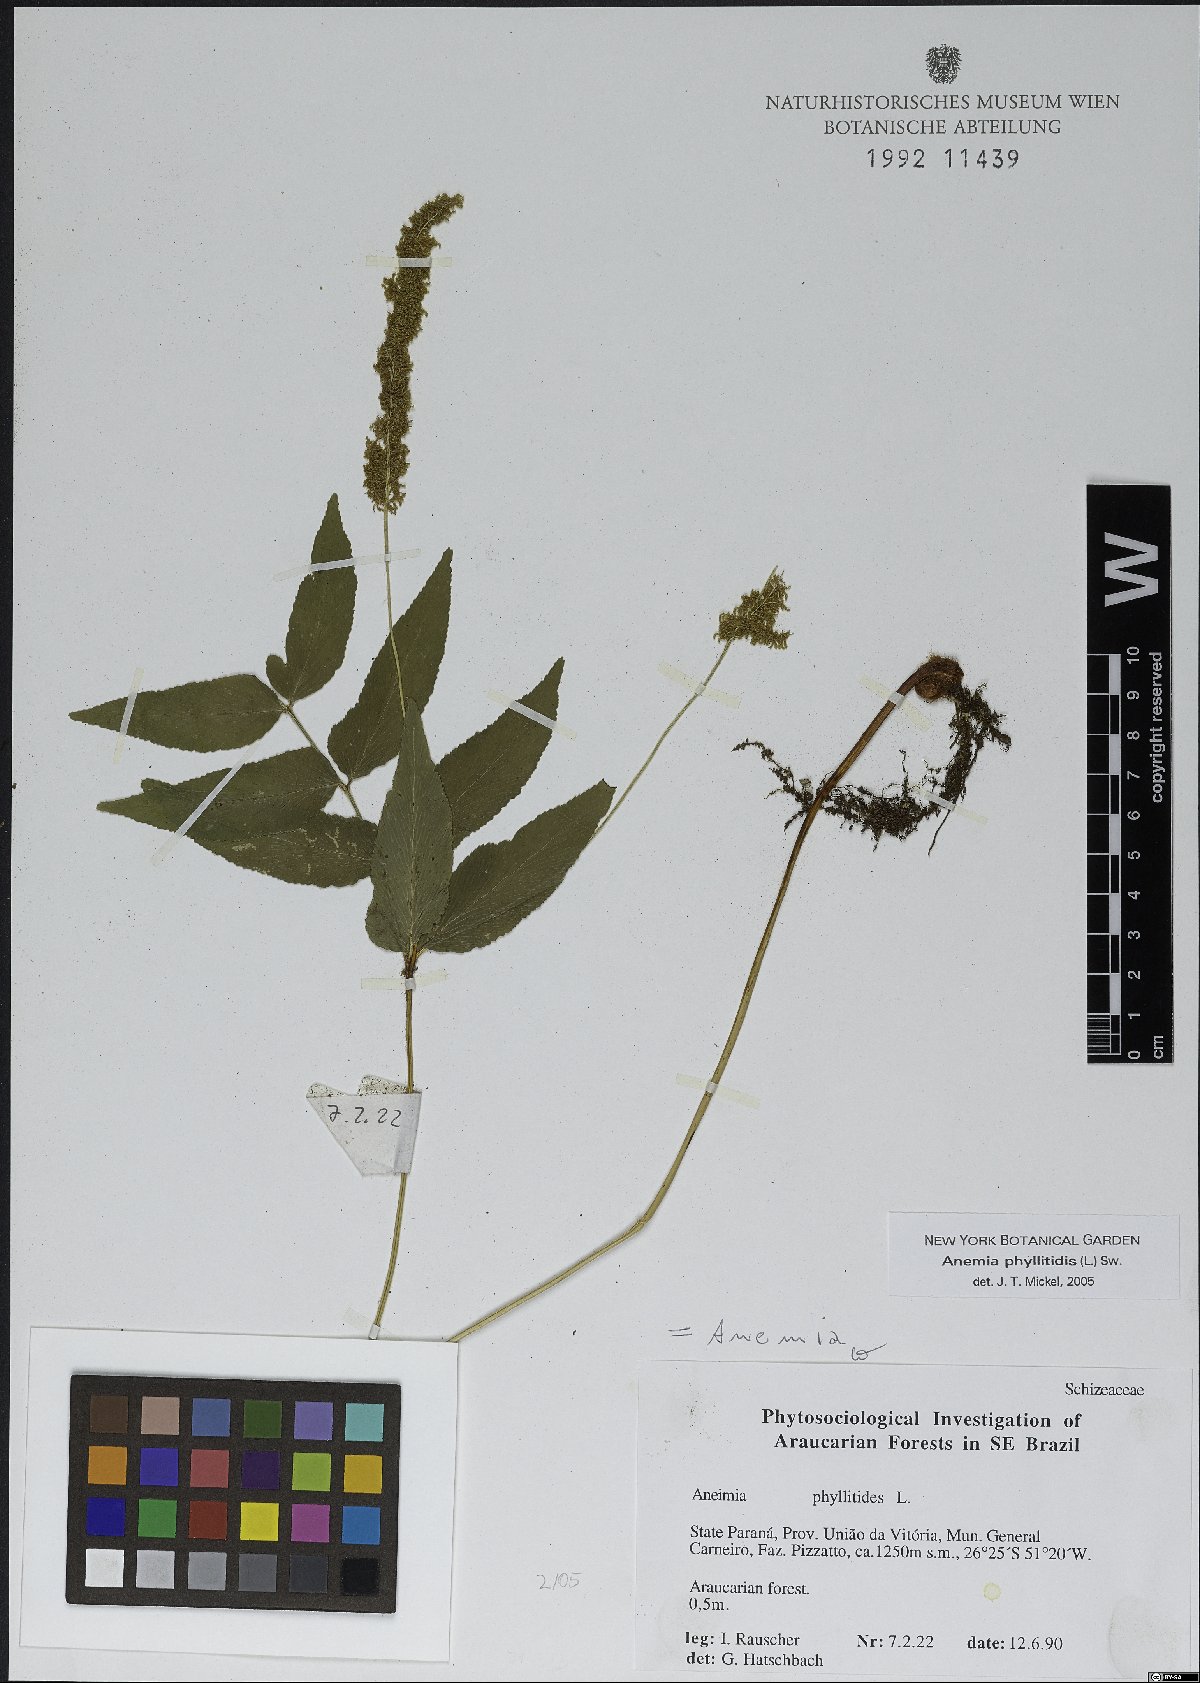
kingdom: Plantae
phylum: Tracheophyta
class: Polypodiopsida
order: Schizaeales
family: Anemiaceae
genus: Anemia
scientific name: Anemia phyllitidis
